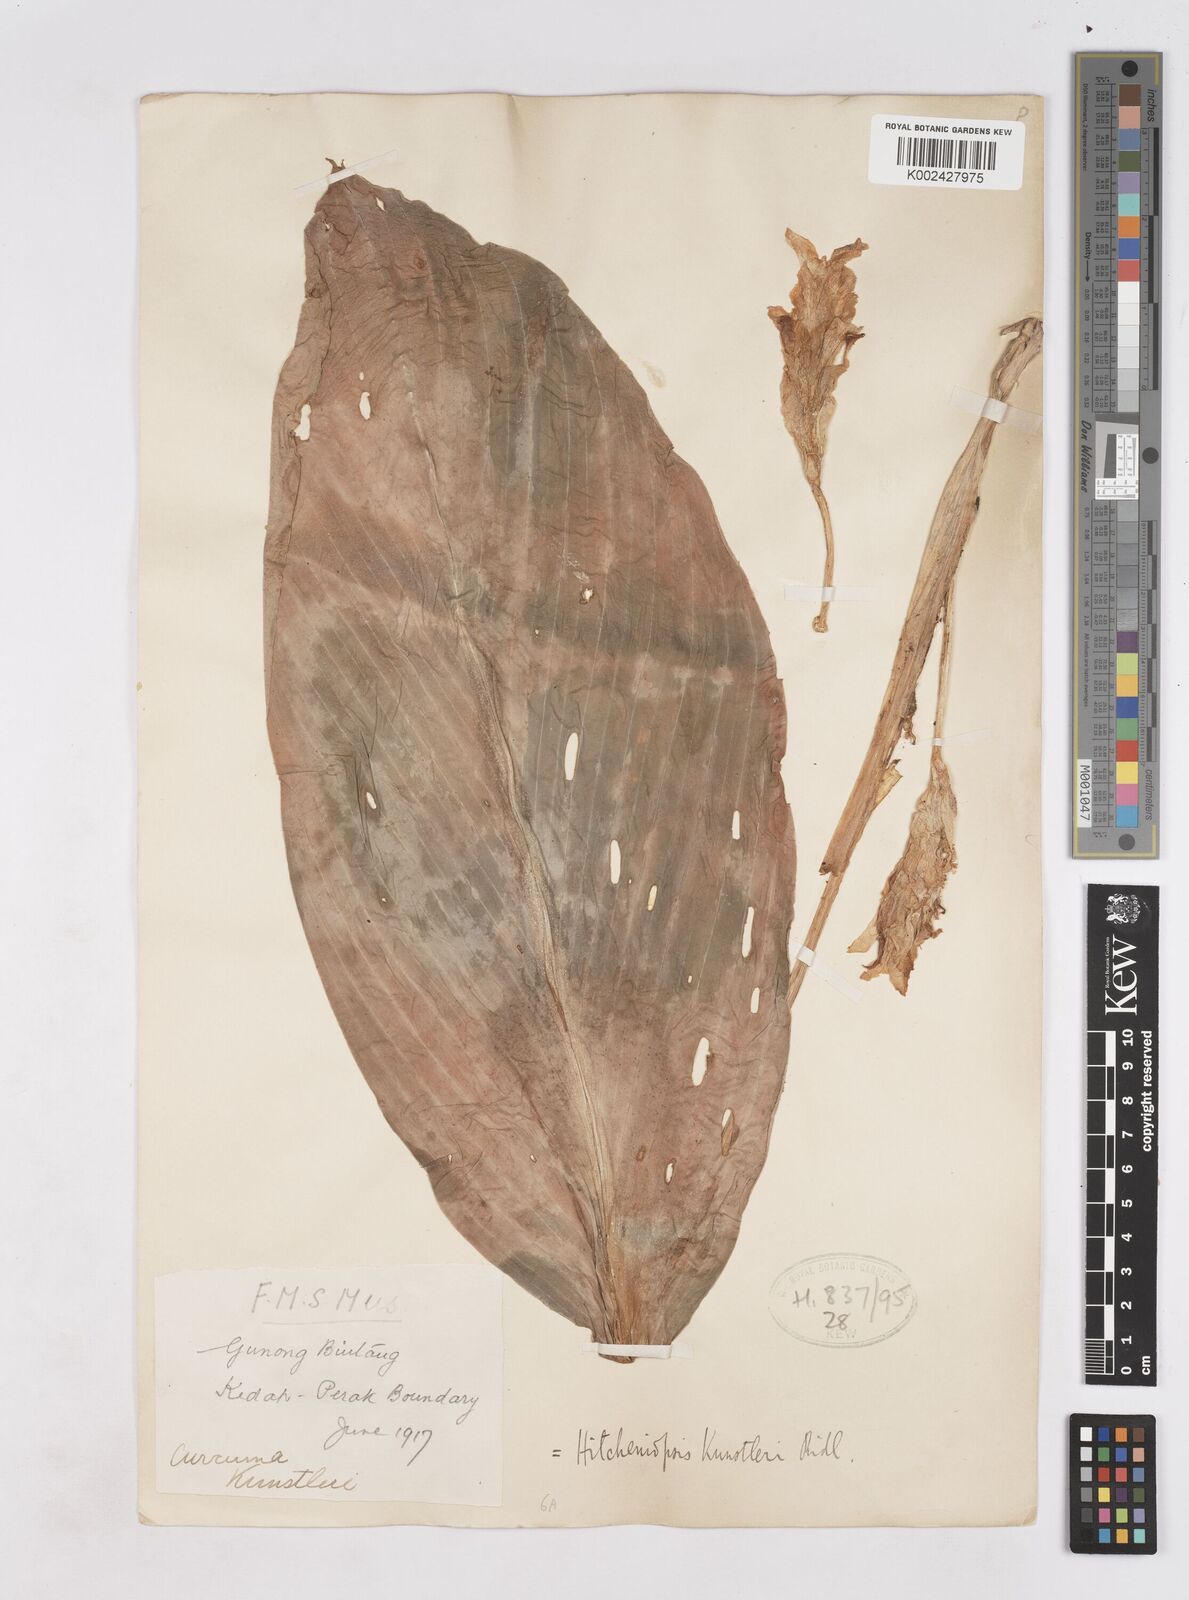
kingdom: Plantae
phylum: Tracheophyta
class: Liliopsida
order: Zingiberales
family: Zingiberaceae
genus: Scaphochlamys
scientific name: Scaphochlamys
